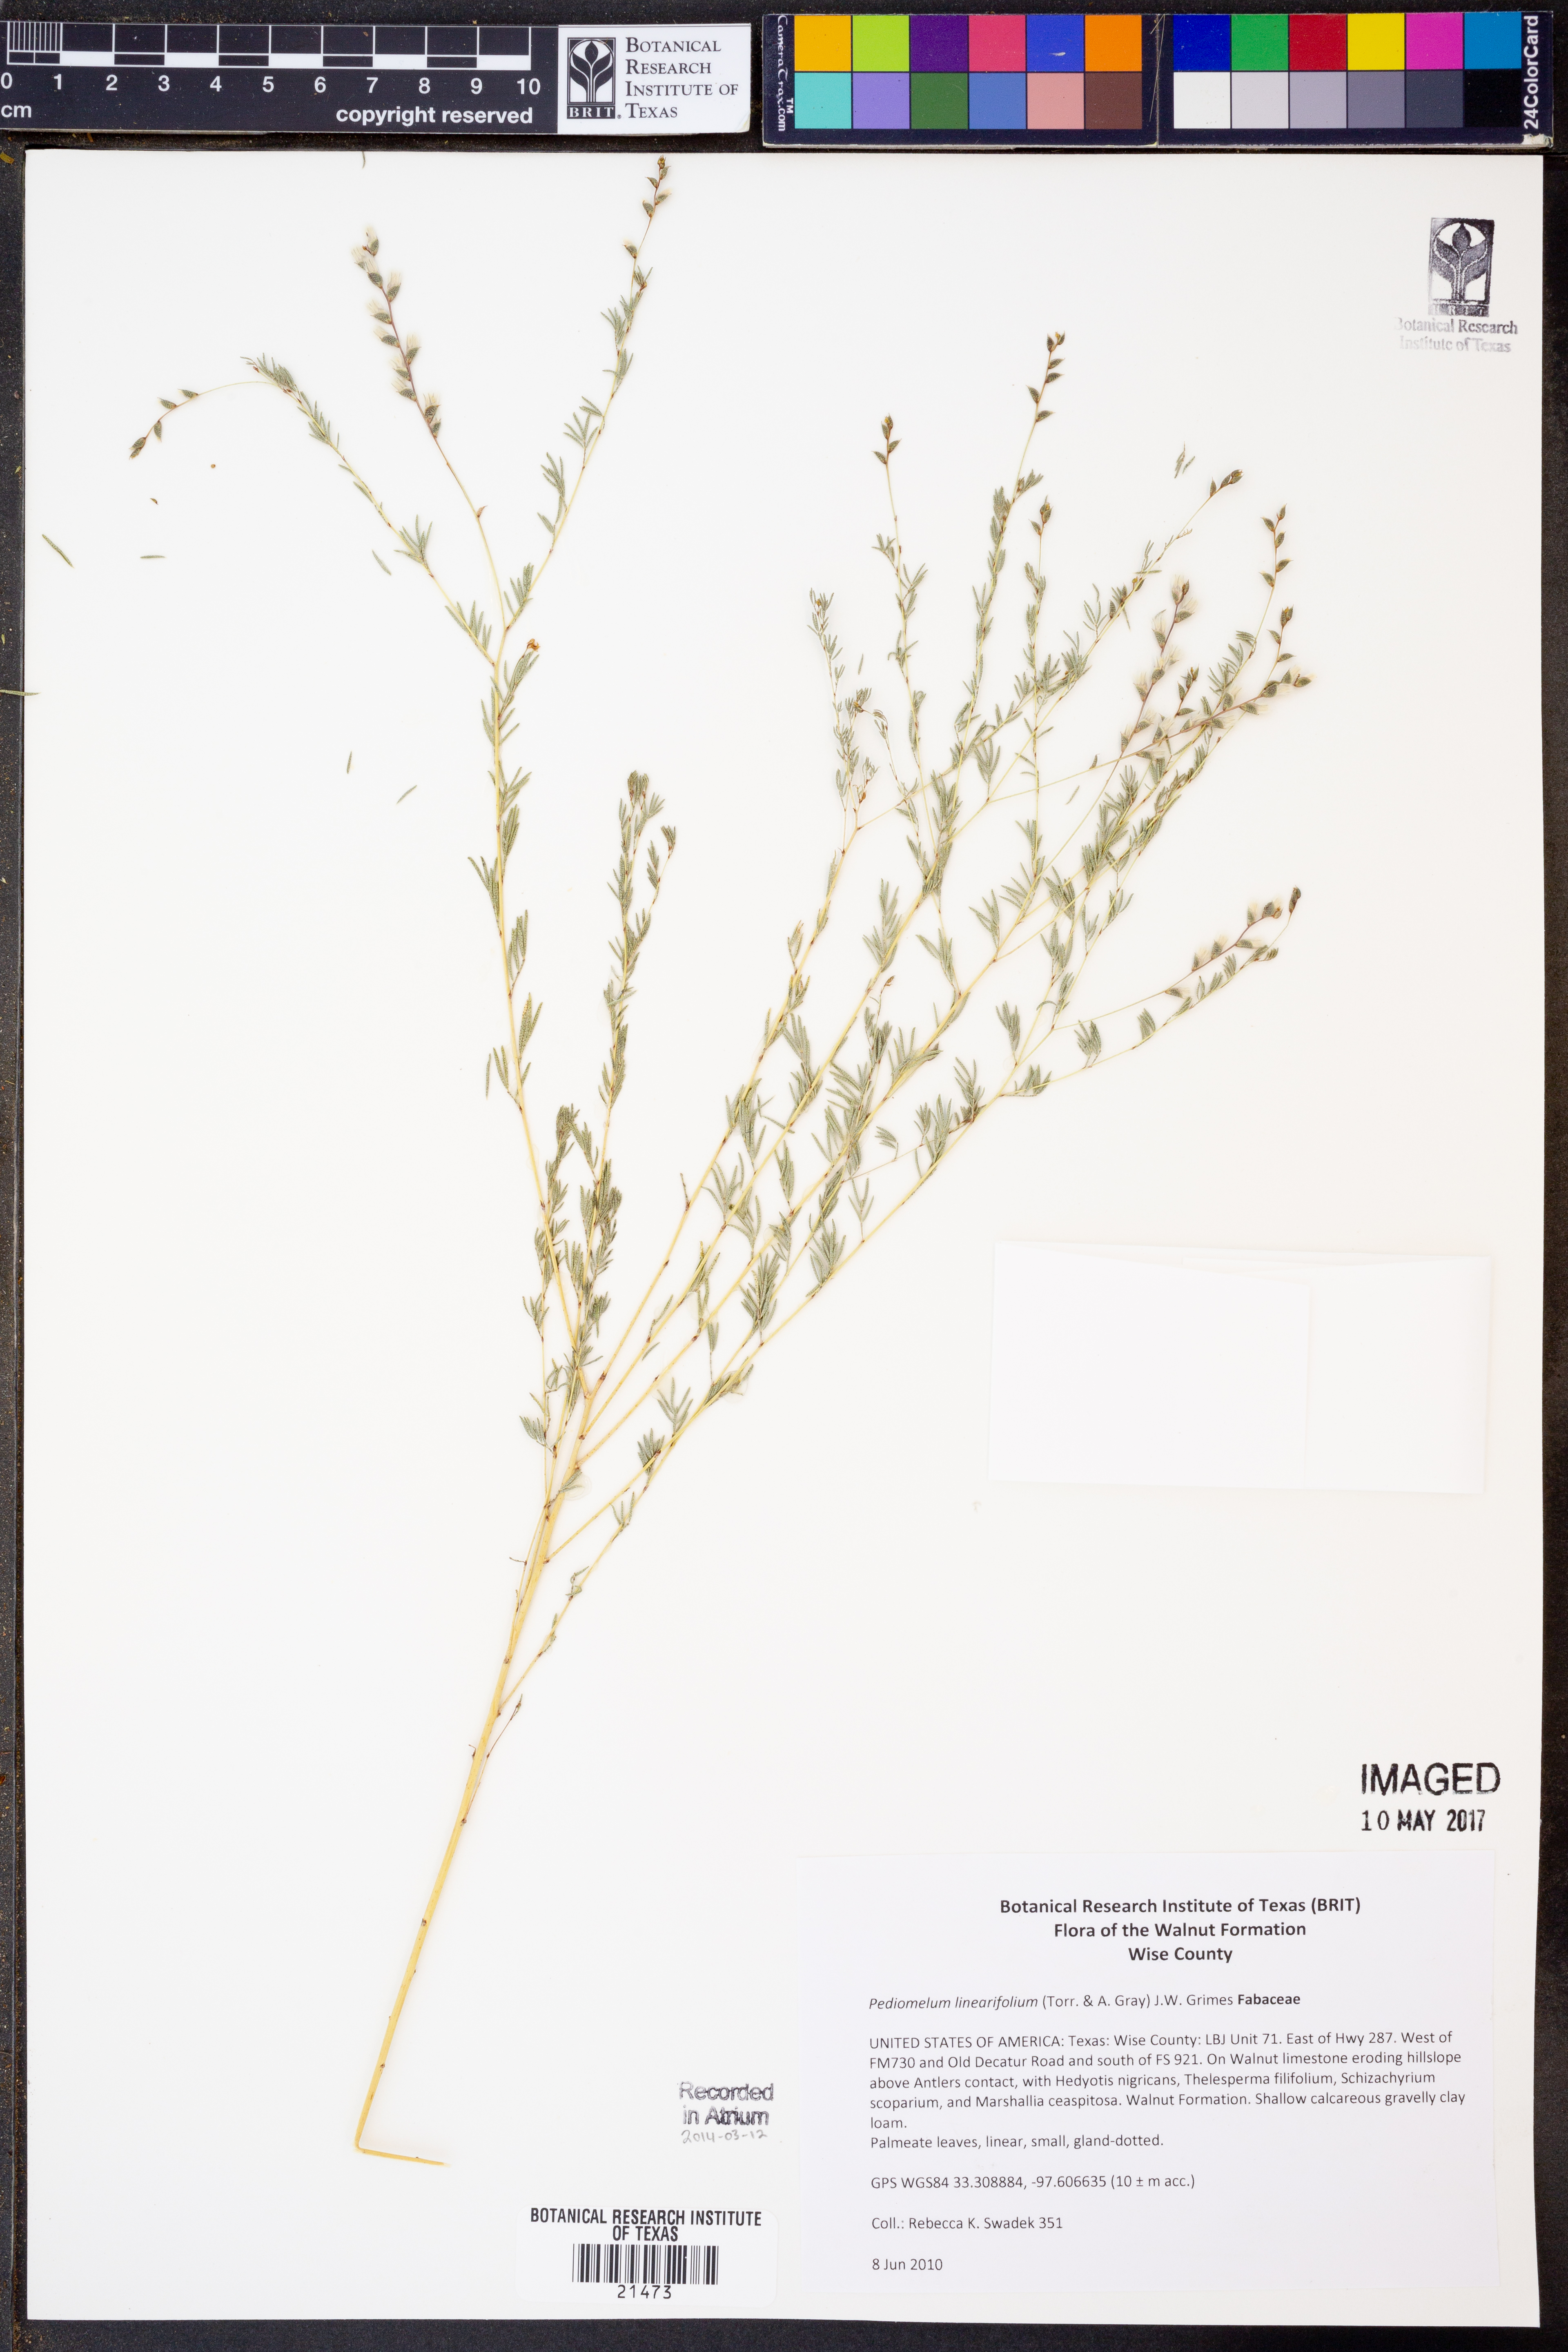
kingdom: Plantae
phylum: Tracheophyta
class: Magnoliopsida
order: Fabales
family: Fabaceae
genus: Pediomelum
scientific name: Pediomelum linearifolium
